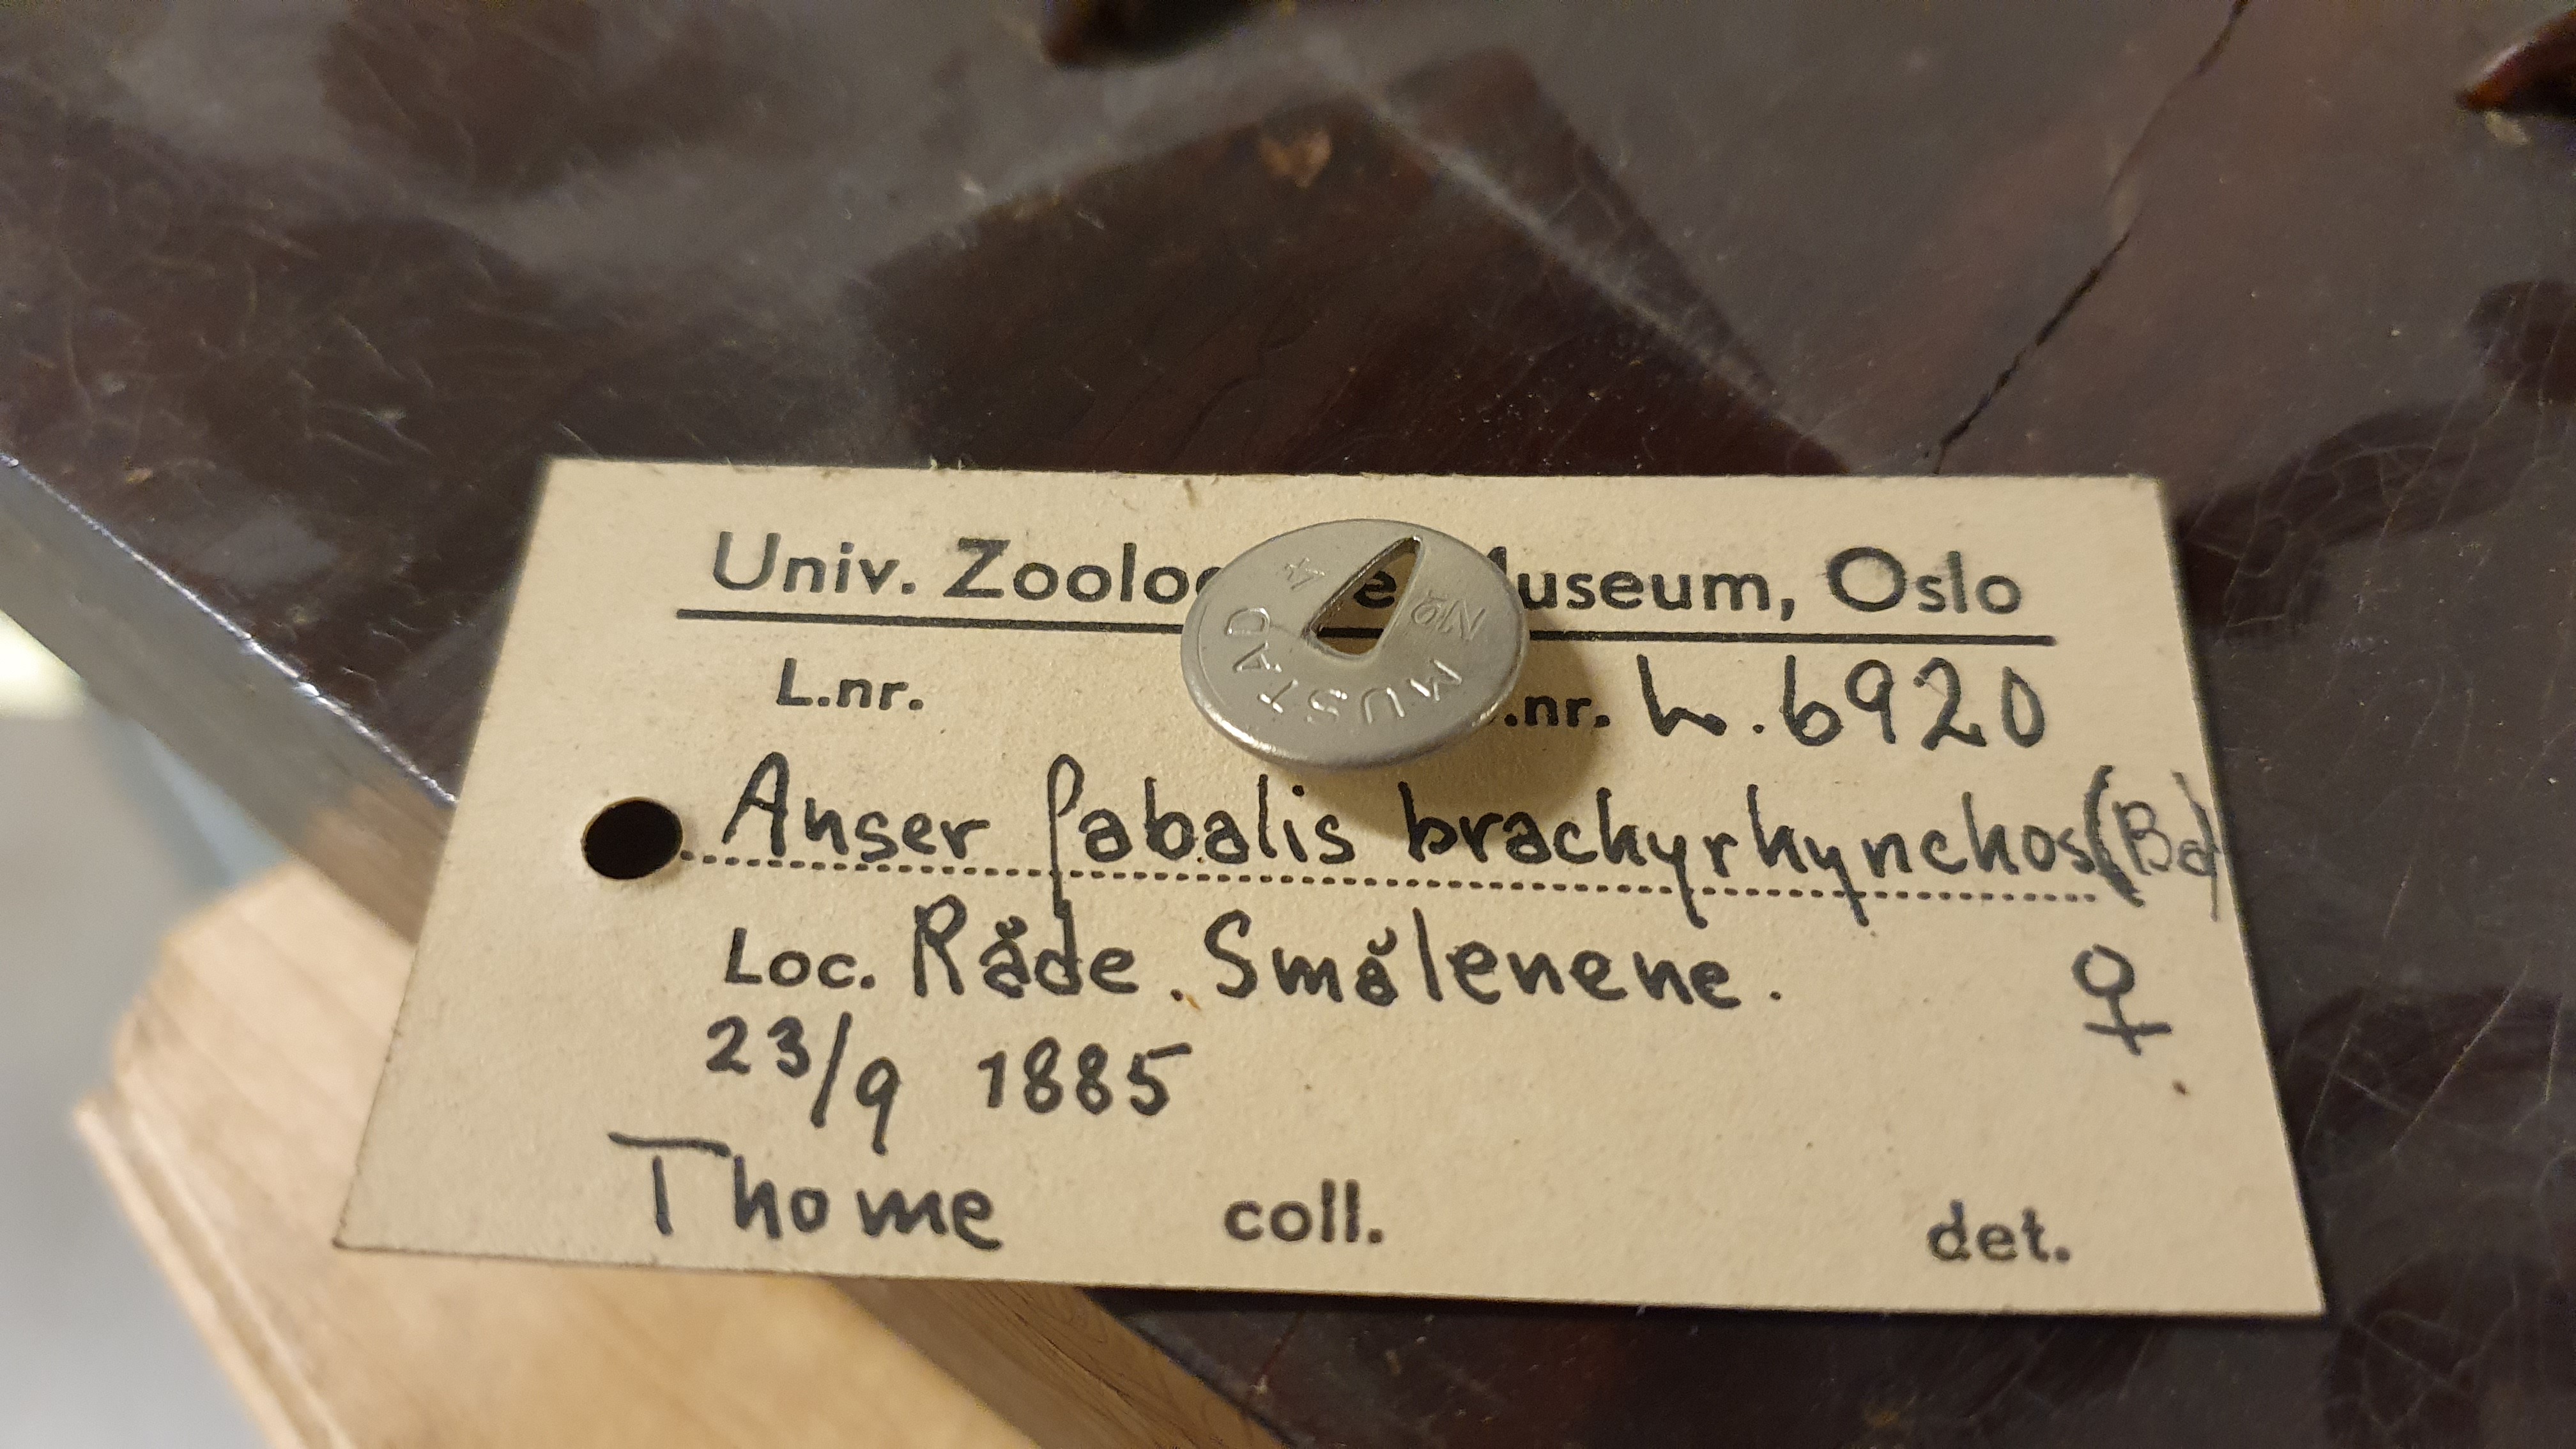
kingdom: Animalia
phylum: Chordata
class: Aves
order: Anseriformes
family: Anatidae
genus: Anser
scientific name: Anser brachyrhynchus
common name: Pink-footed goose
